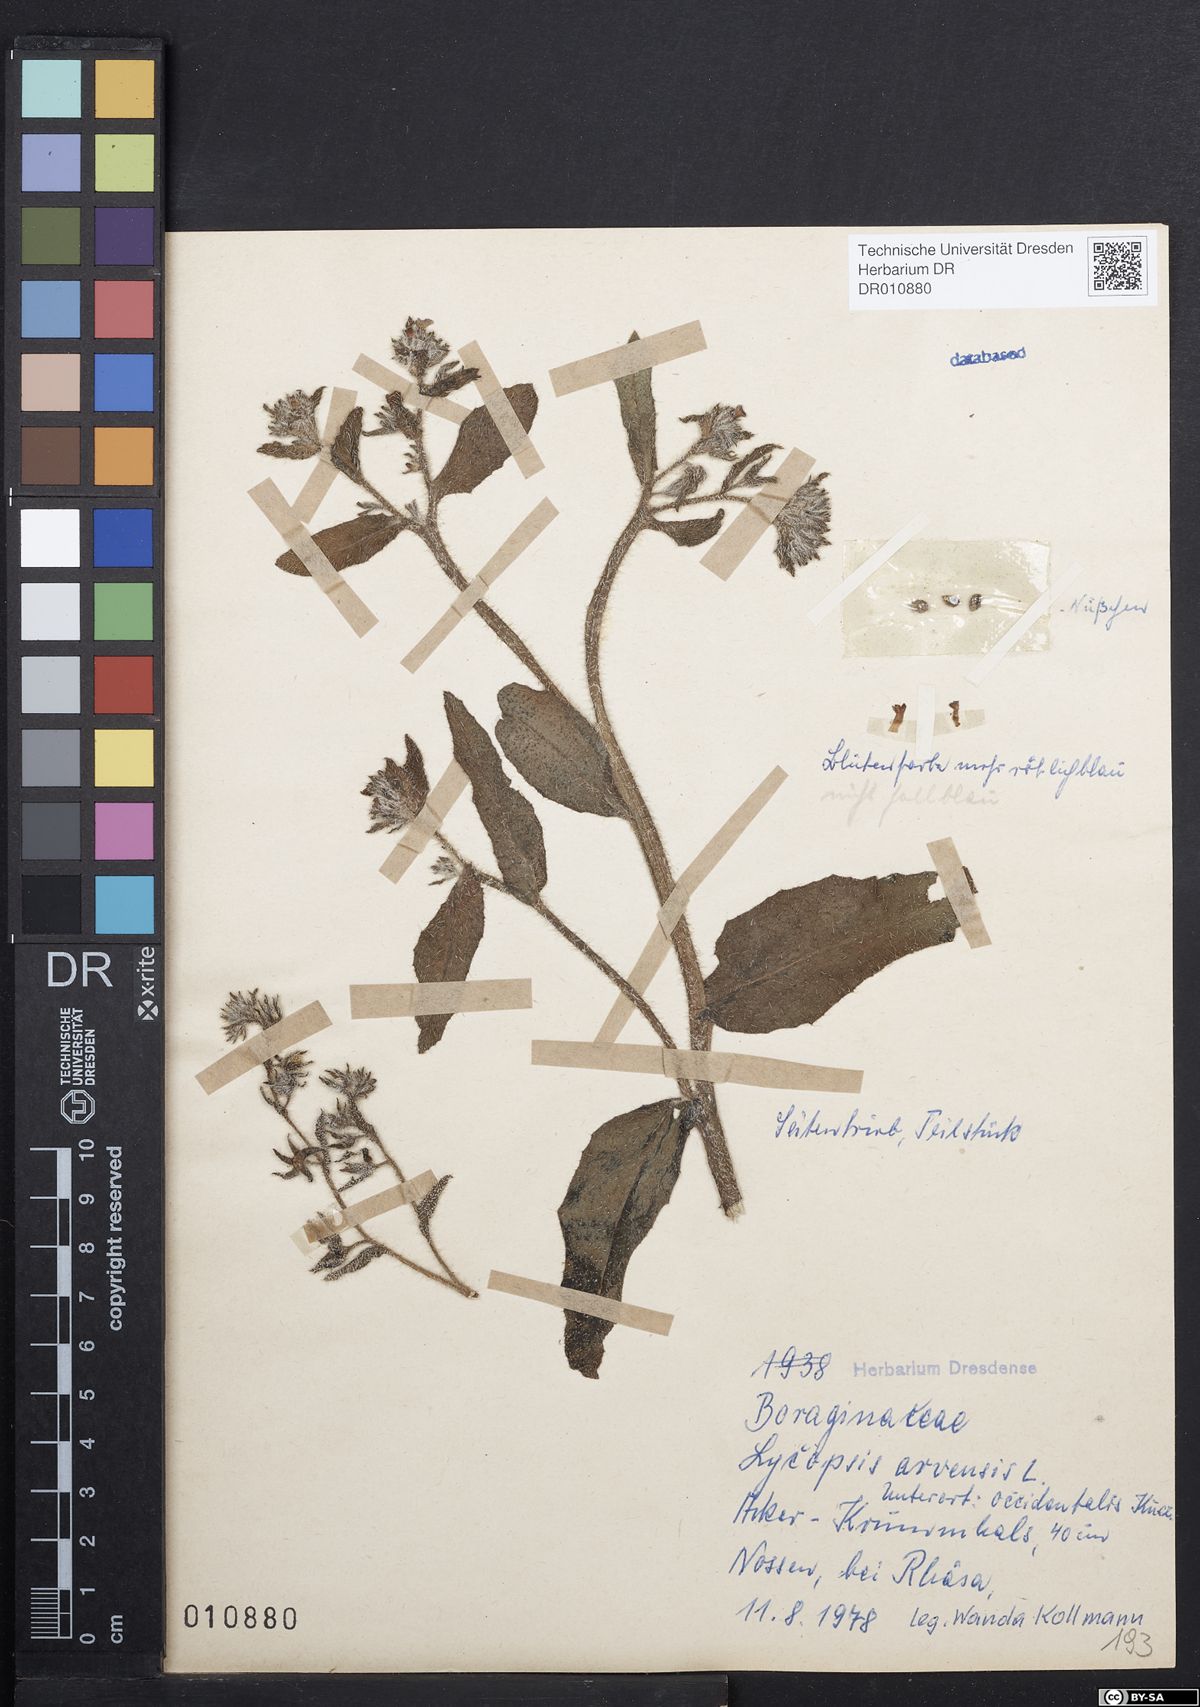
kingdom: Plantae
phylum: Tracheophyta
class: Magnoliopsida
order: Boraginales
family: Boraginaceae
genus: Lycopsis
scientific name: Lycopsis arvensis
